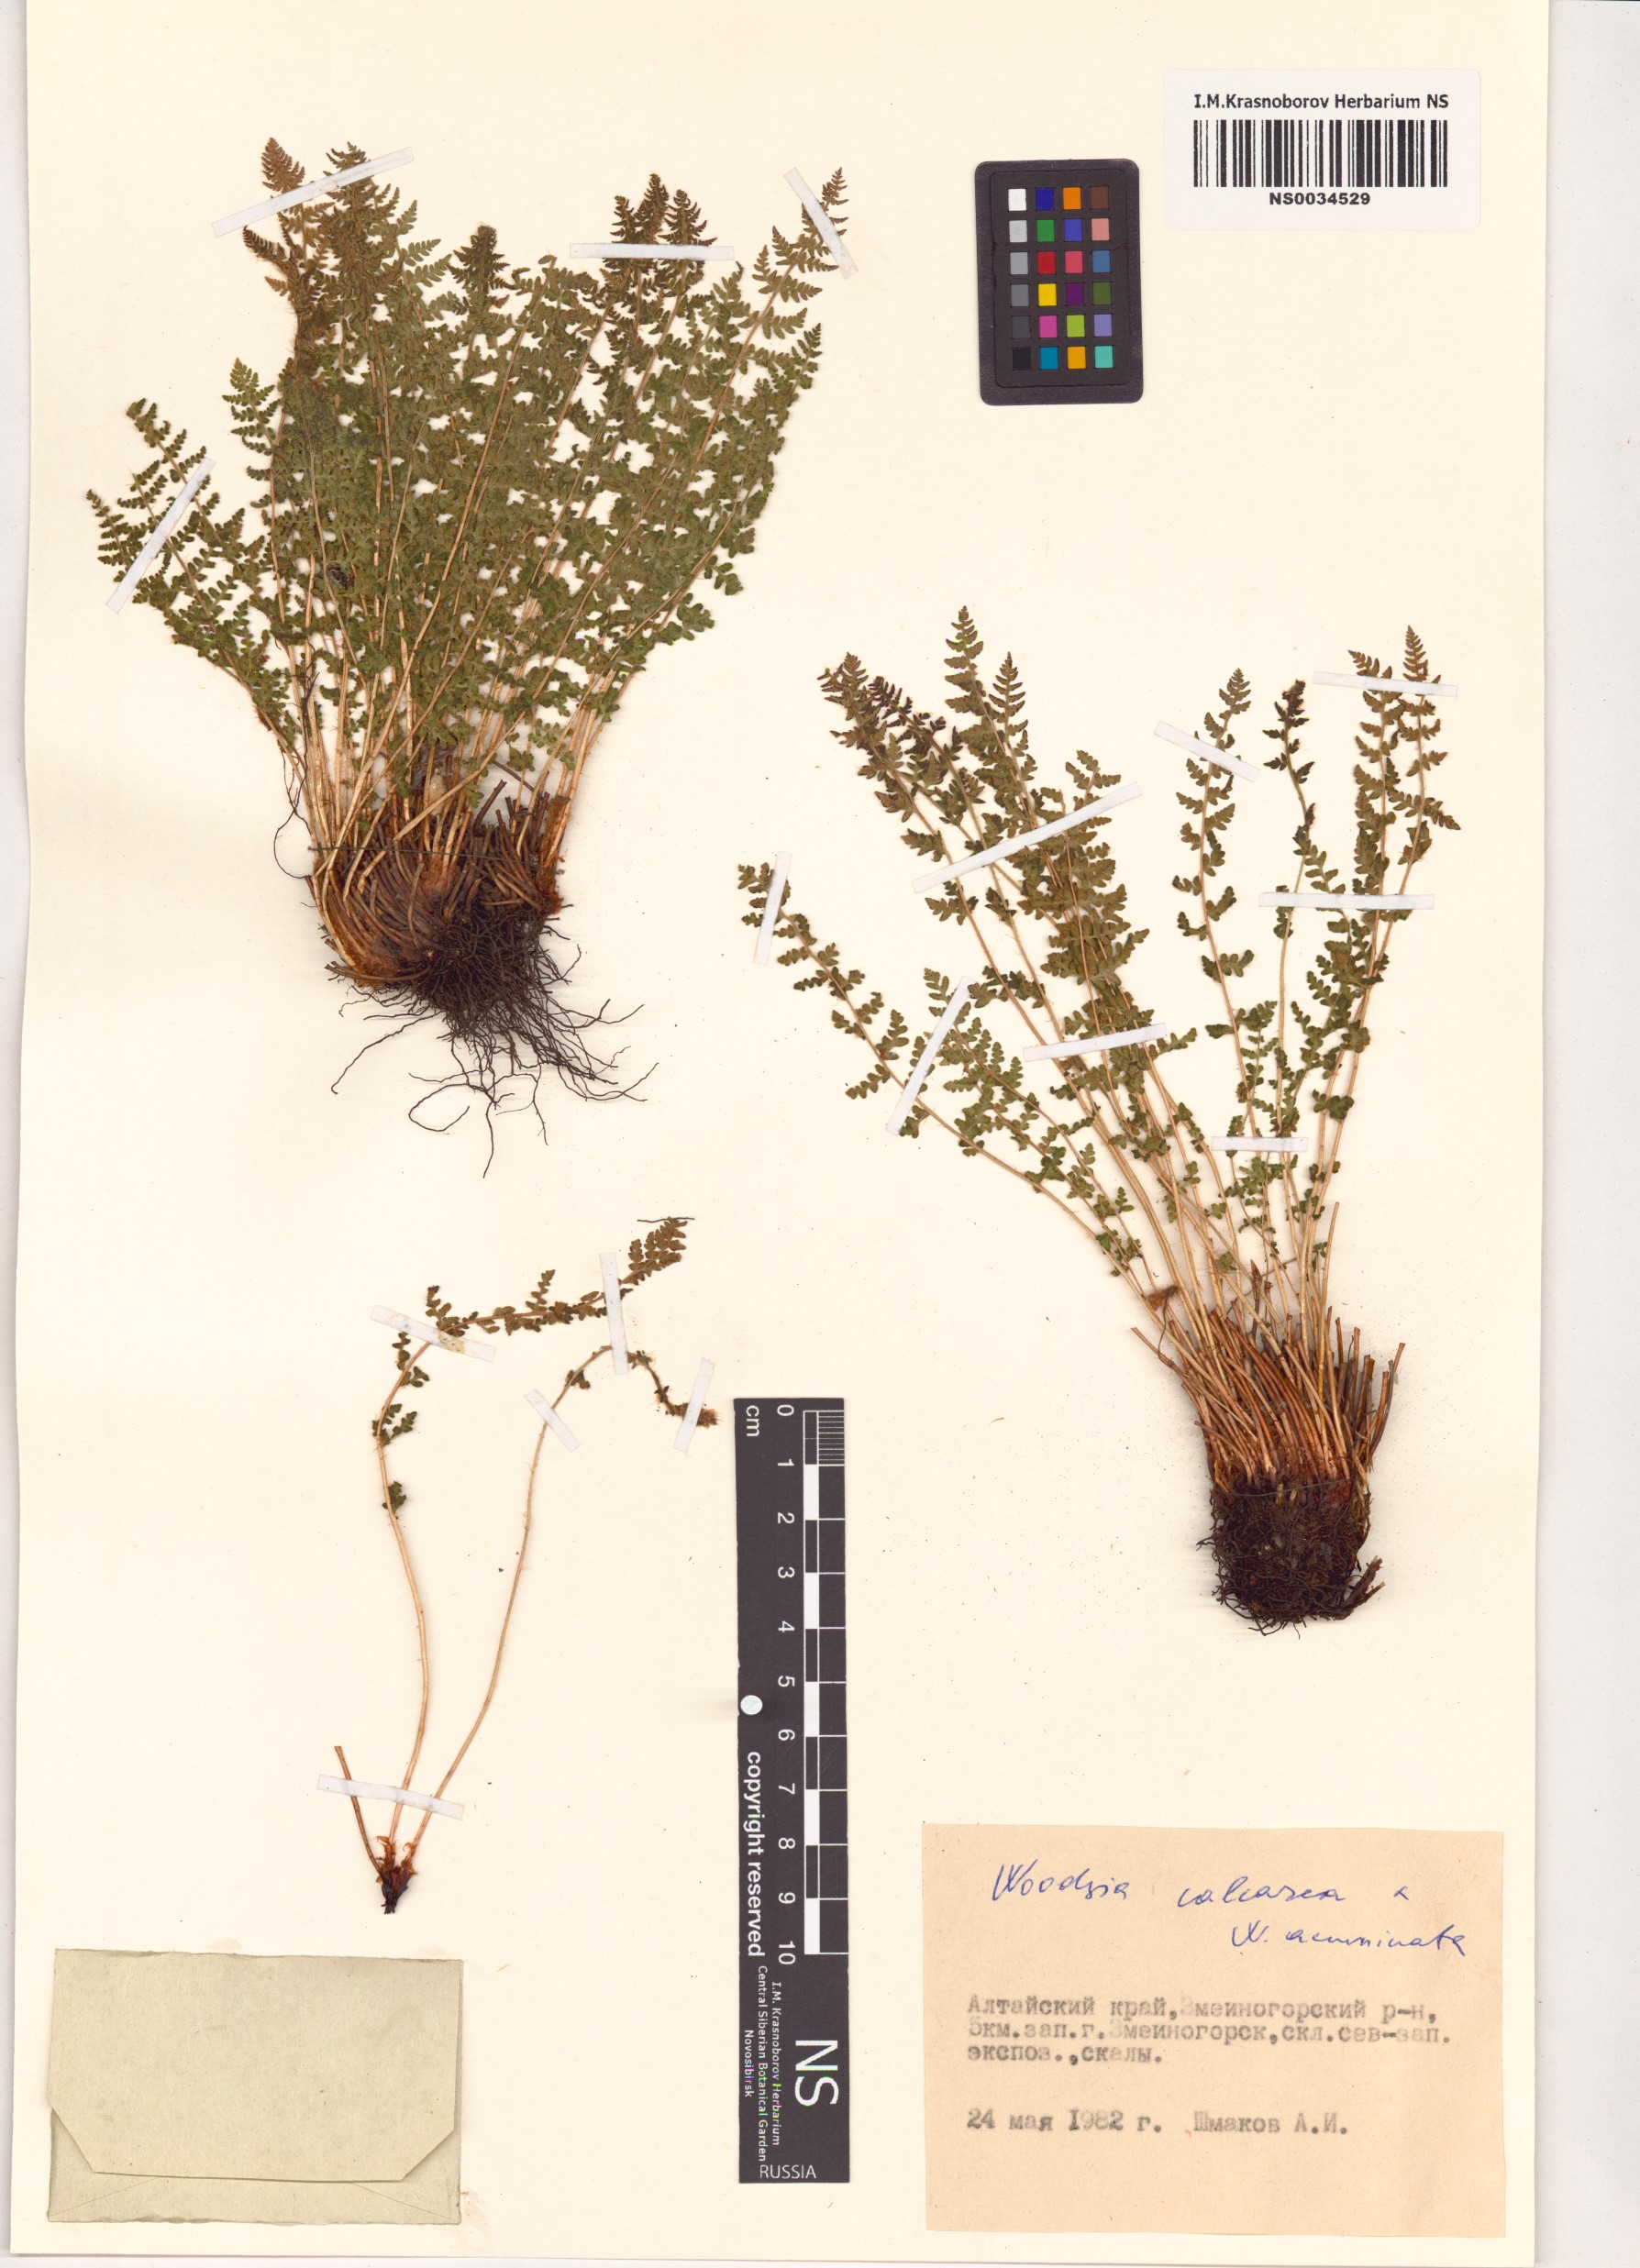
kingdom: Plantae
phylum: Tracheophyta
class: Polypodiopsida
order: Polypodiales
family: Woodsiaceae
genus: Woodsia
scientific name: Woodsia calcarea
